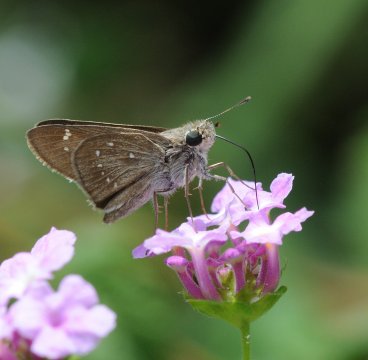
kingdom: Animalia
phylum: Arthropoda
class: Insecta
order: Lepidoptera
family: Hesperiidae
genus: Pelopidas
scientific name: Pelopidas mathias
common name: Small Branded Swift
